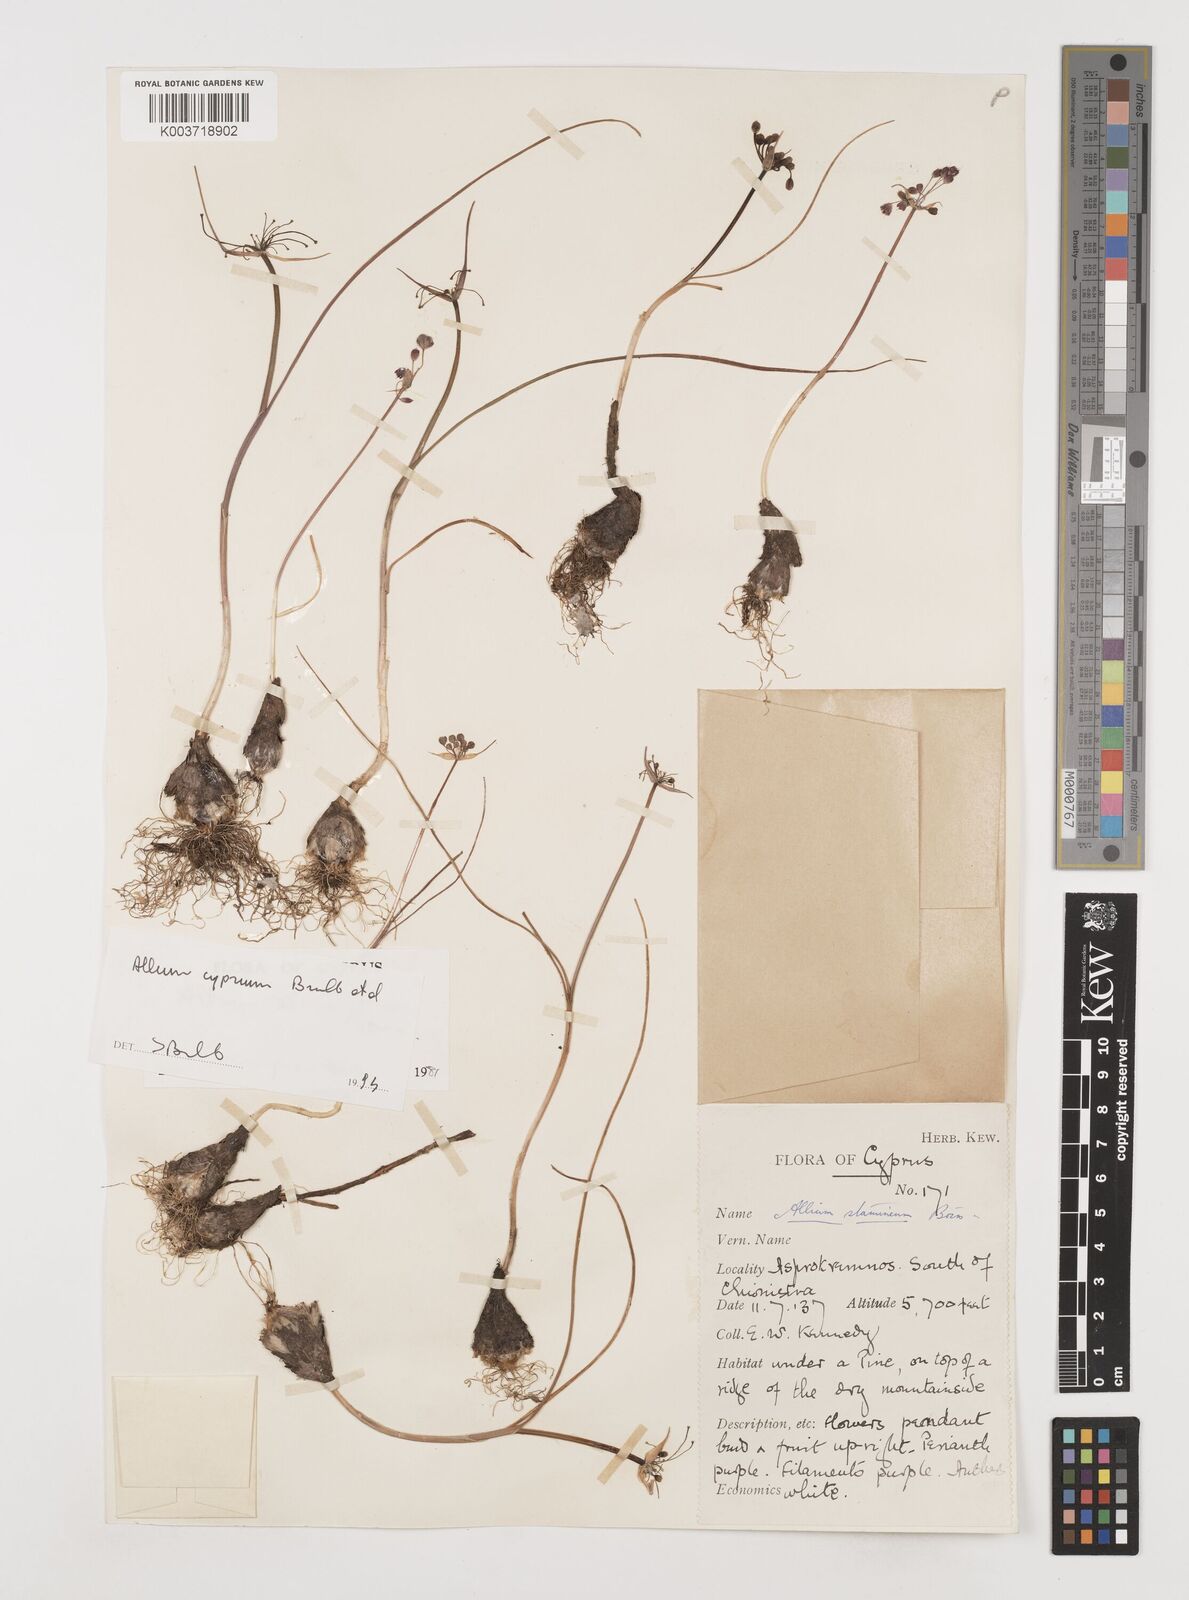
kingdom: Plantae
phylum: Tracheophyta
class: Liliopsida
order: Asparagales
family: Amaryllidaceae
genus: Allium
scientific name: Allium stamineum
